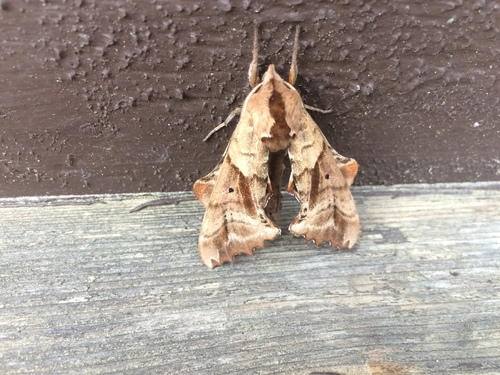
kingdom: Animalia
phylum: Arthropoda
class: Insecta
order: Lepidoptera
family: Sphingidae
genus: Paonias
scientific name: Paonias excaecata
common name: Blind-eyed sphinx
